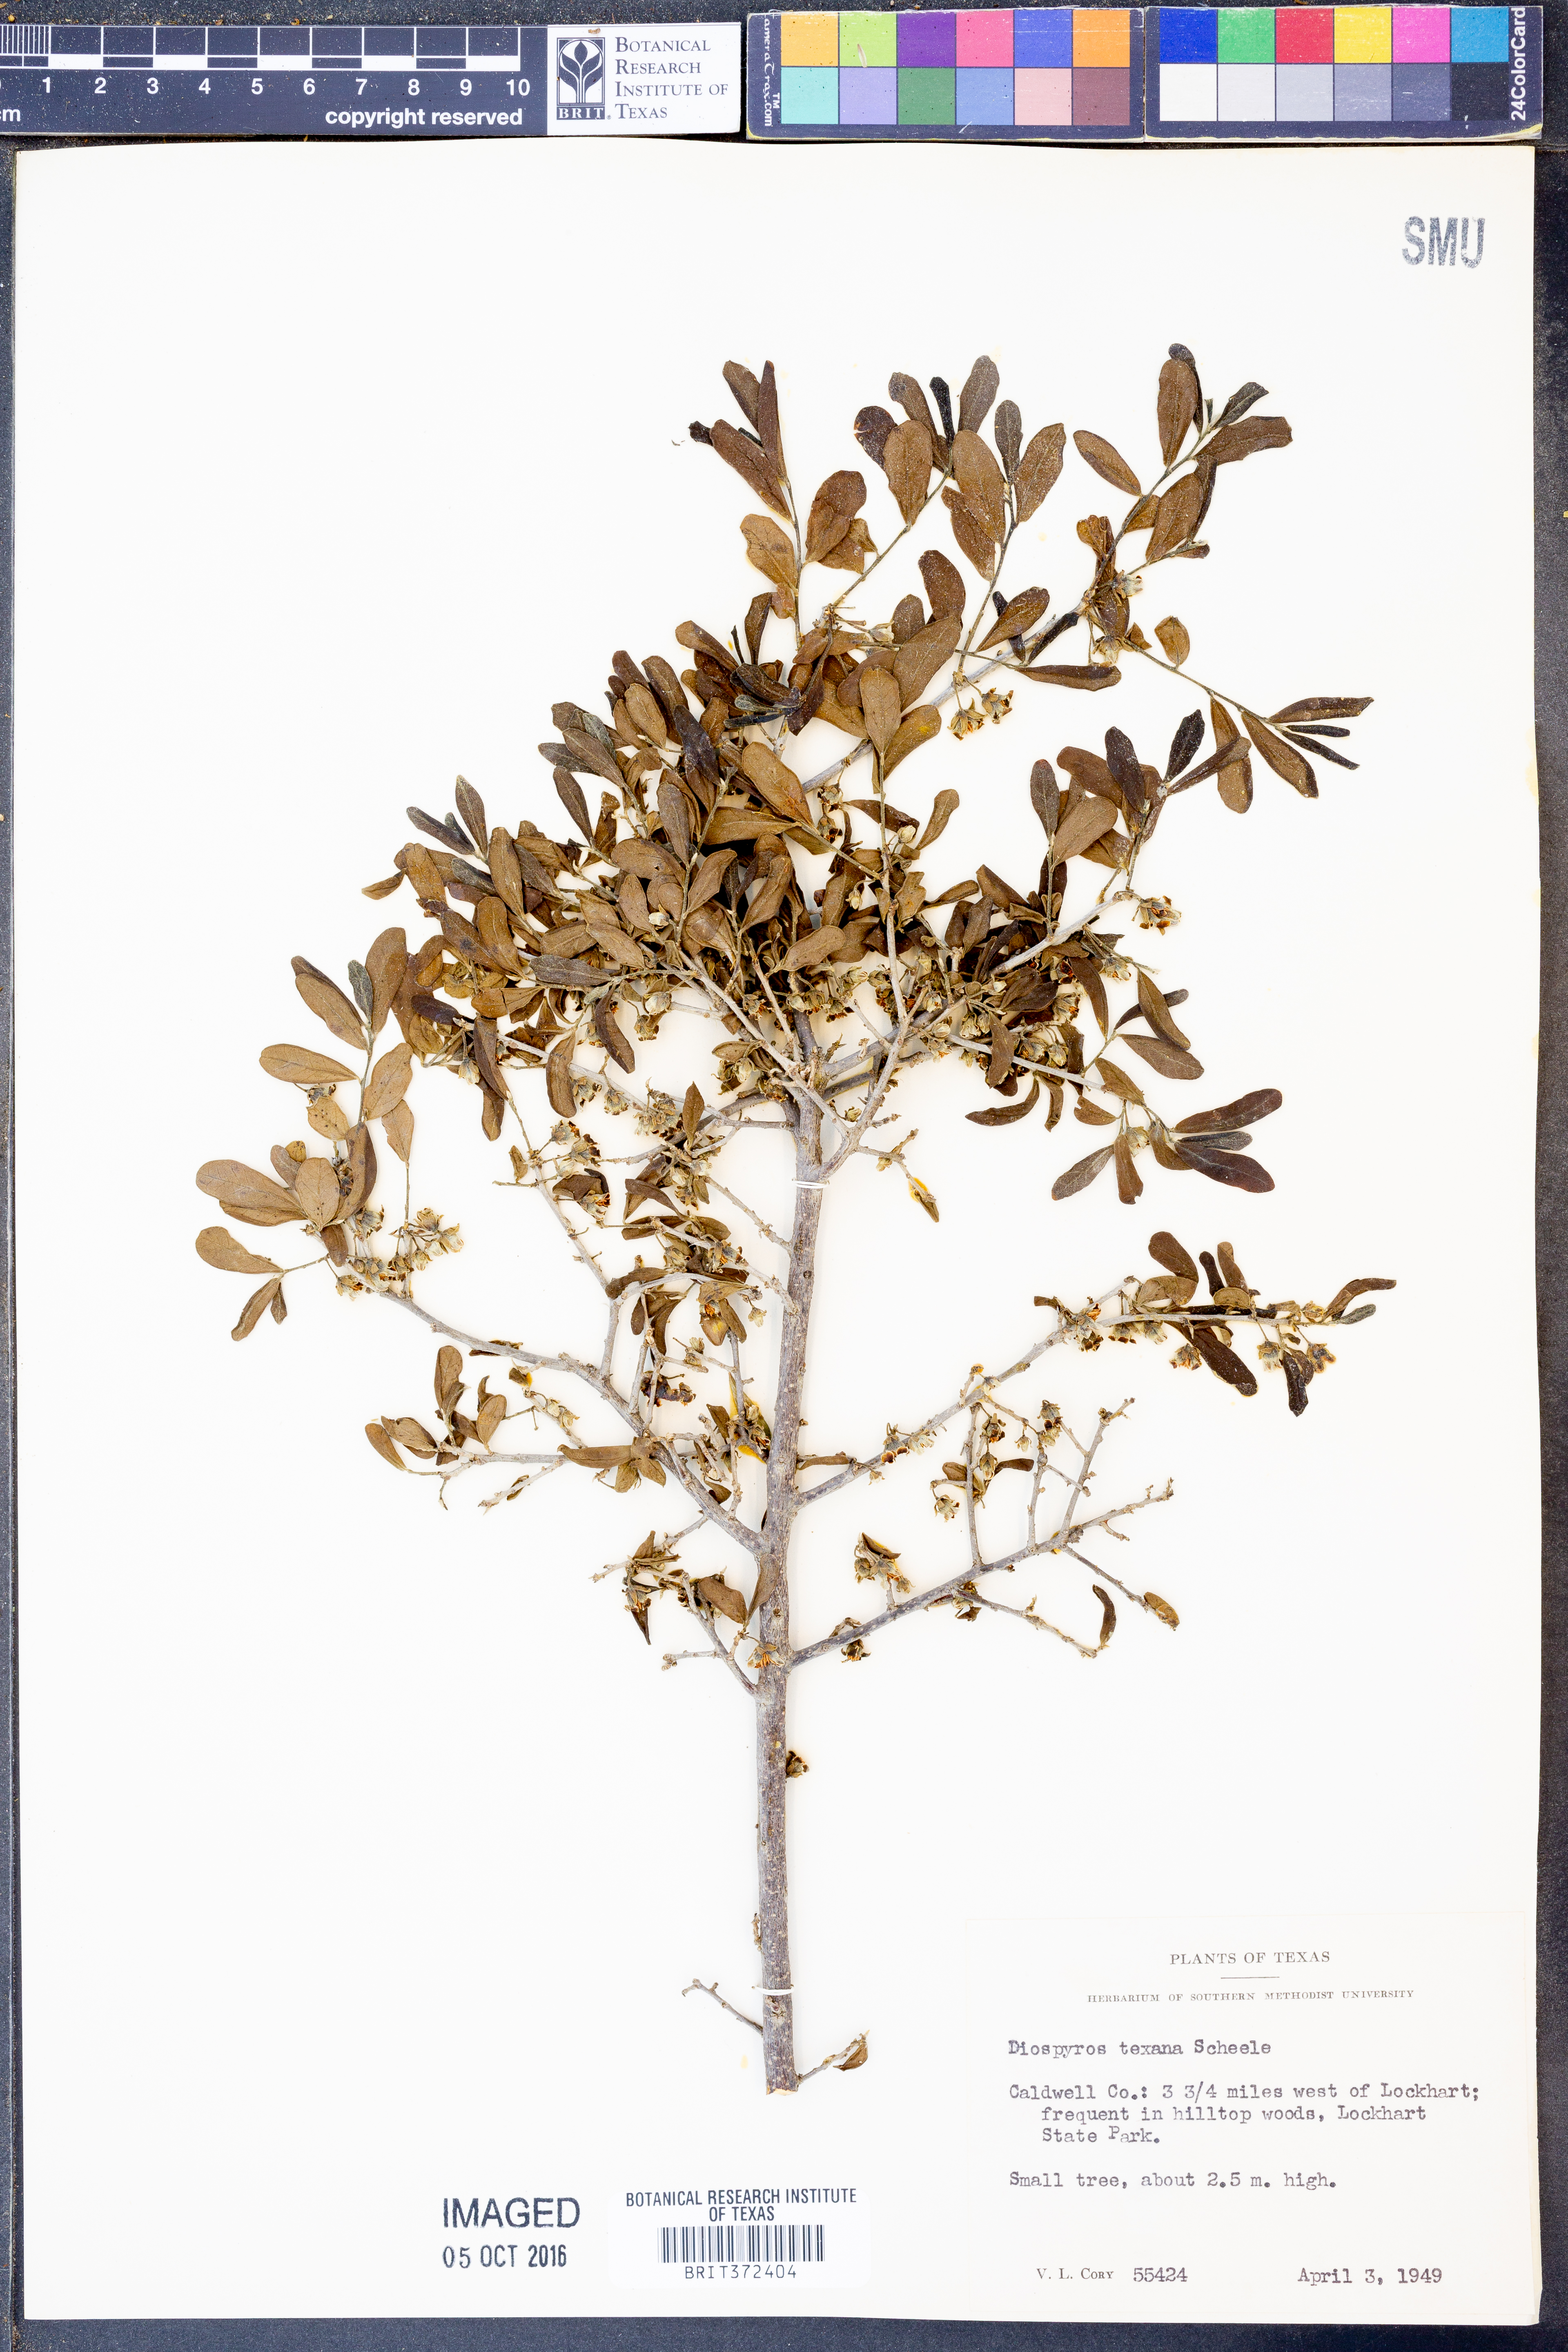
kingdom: Plantae
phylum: Tracheophyta
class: Magnoliopsida
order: Ericales
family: Ebenaceae
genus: Diospyros
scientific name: Diospyros texana
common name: Texas persimmon
